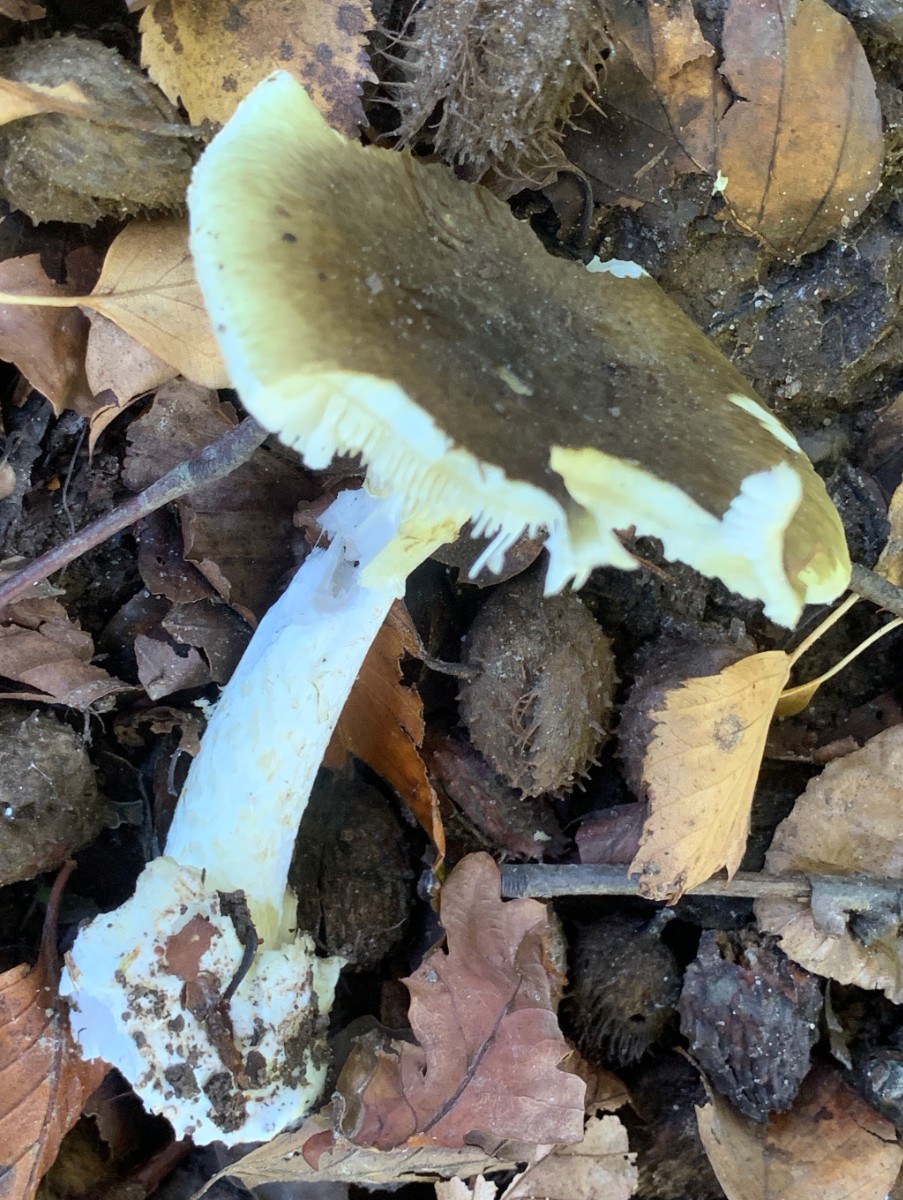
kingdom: Fungi
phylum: Basidiomycota
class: Agaricomycetes
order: Agaricales
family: Amanitaceae
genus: Amanita
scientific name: Amanita phalloides
